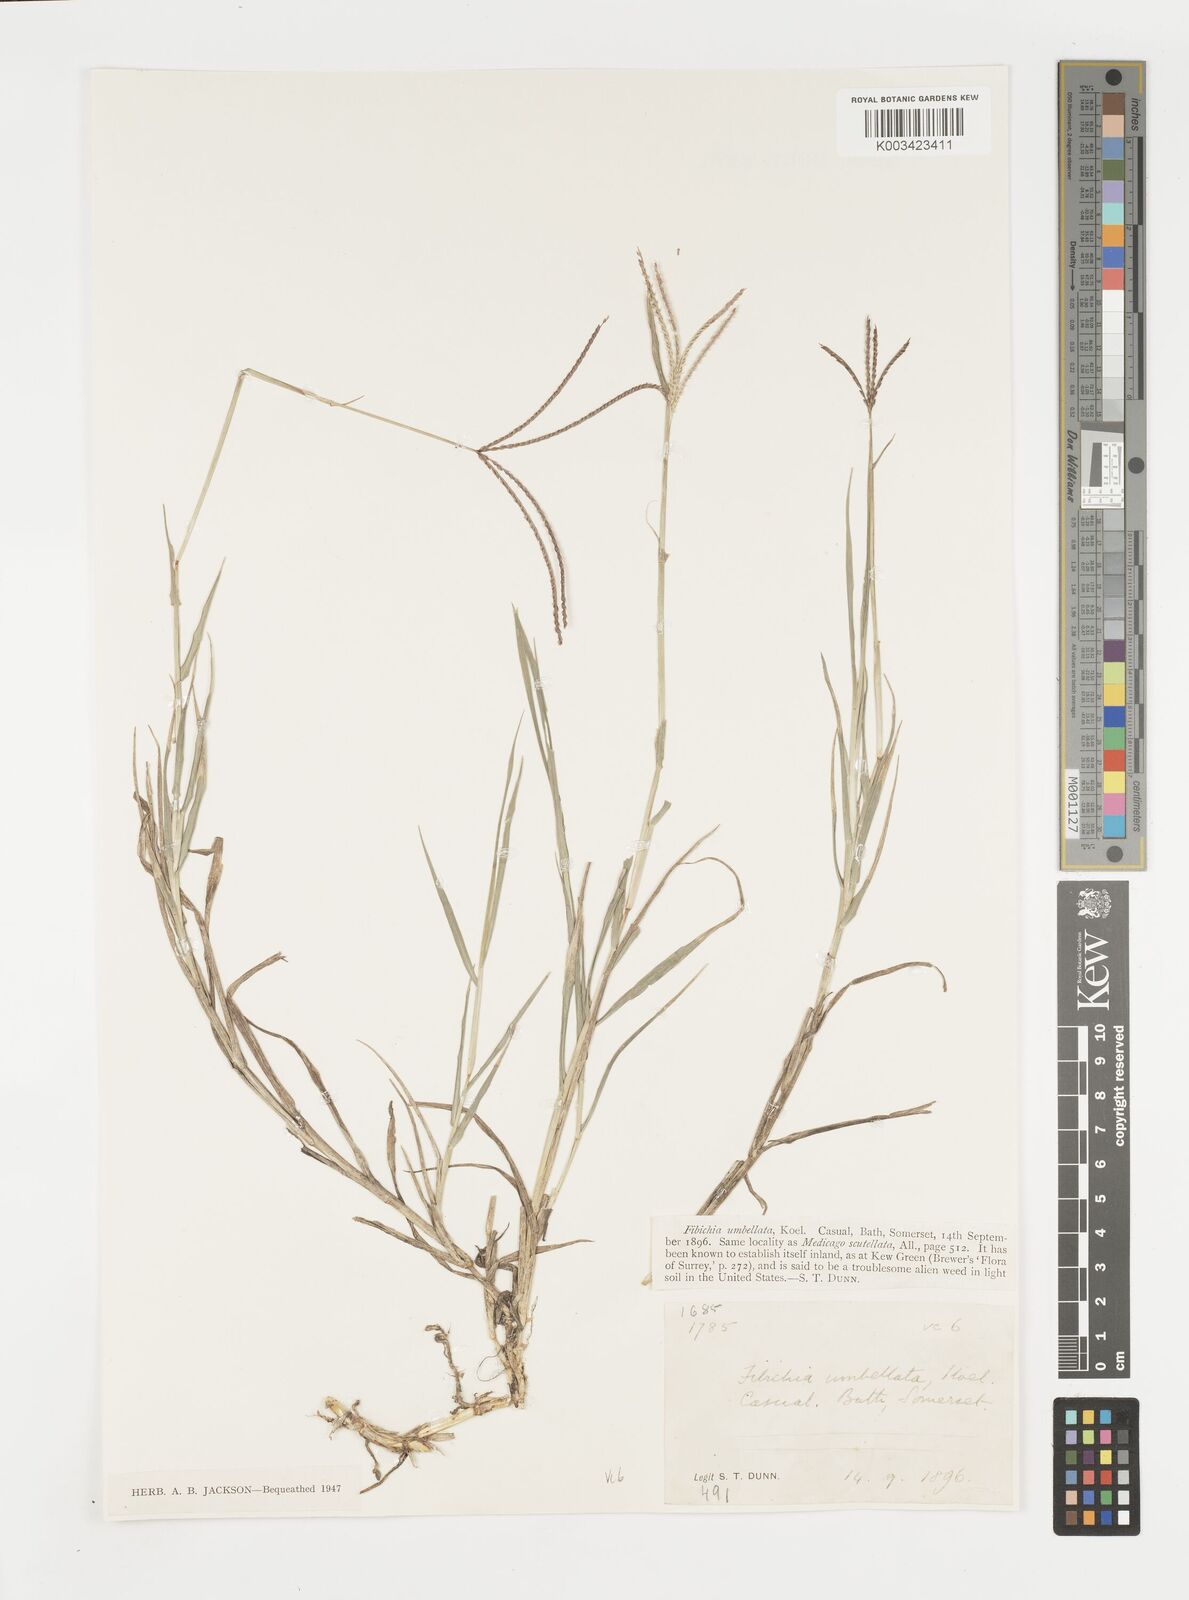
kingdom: Plantae
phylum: Tracheophyta
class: Liliopsida
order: Poales
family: Poaceae
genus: Cynodon
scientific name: Cynodon dactylon
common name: Bermuda grass
